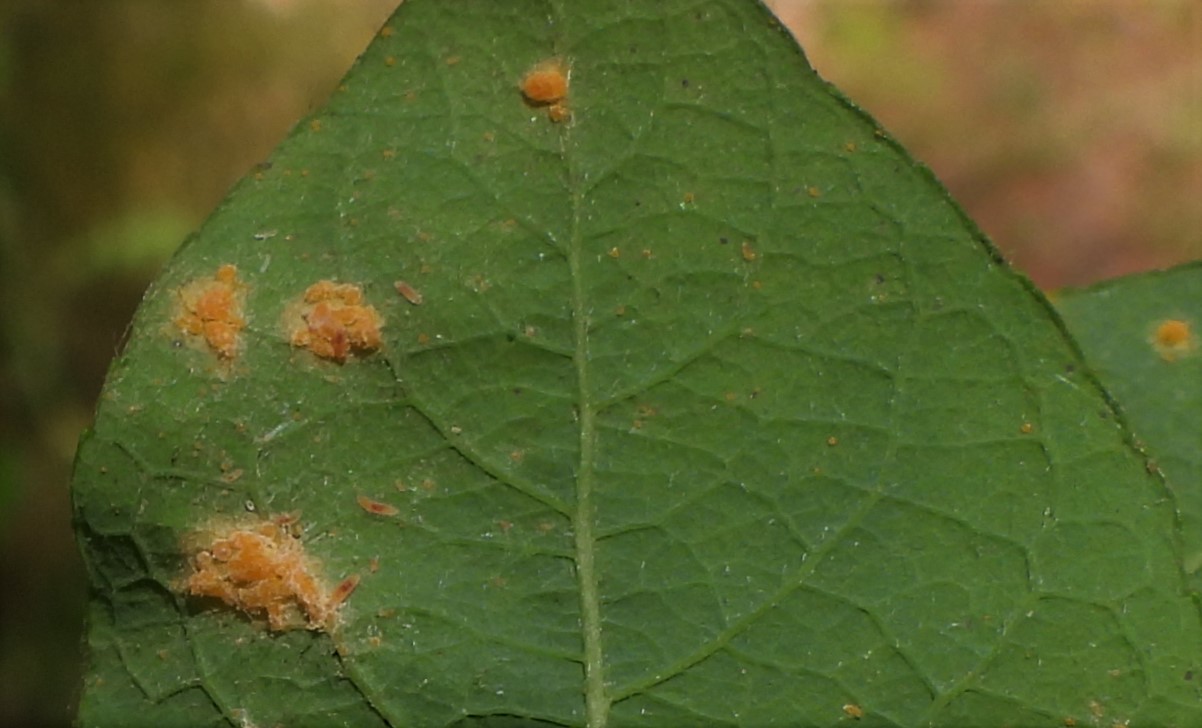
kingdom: Fungi
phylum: Basidiomycota
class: Pucciniomycetes
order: Pucciniales
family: Melampsoraceae
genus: Melampsora
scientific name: Melampsora epitea
